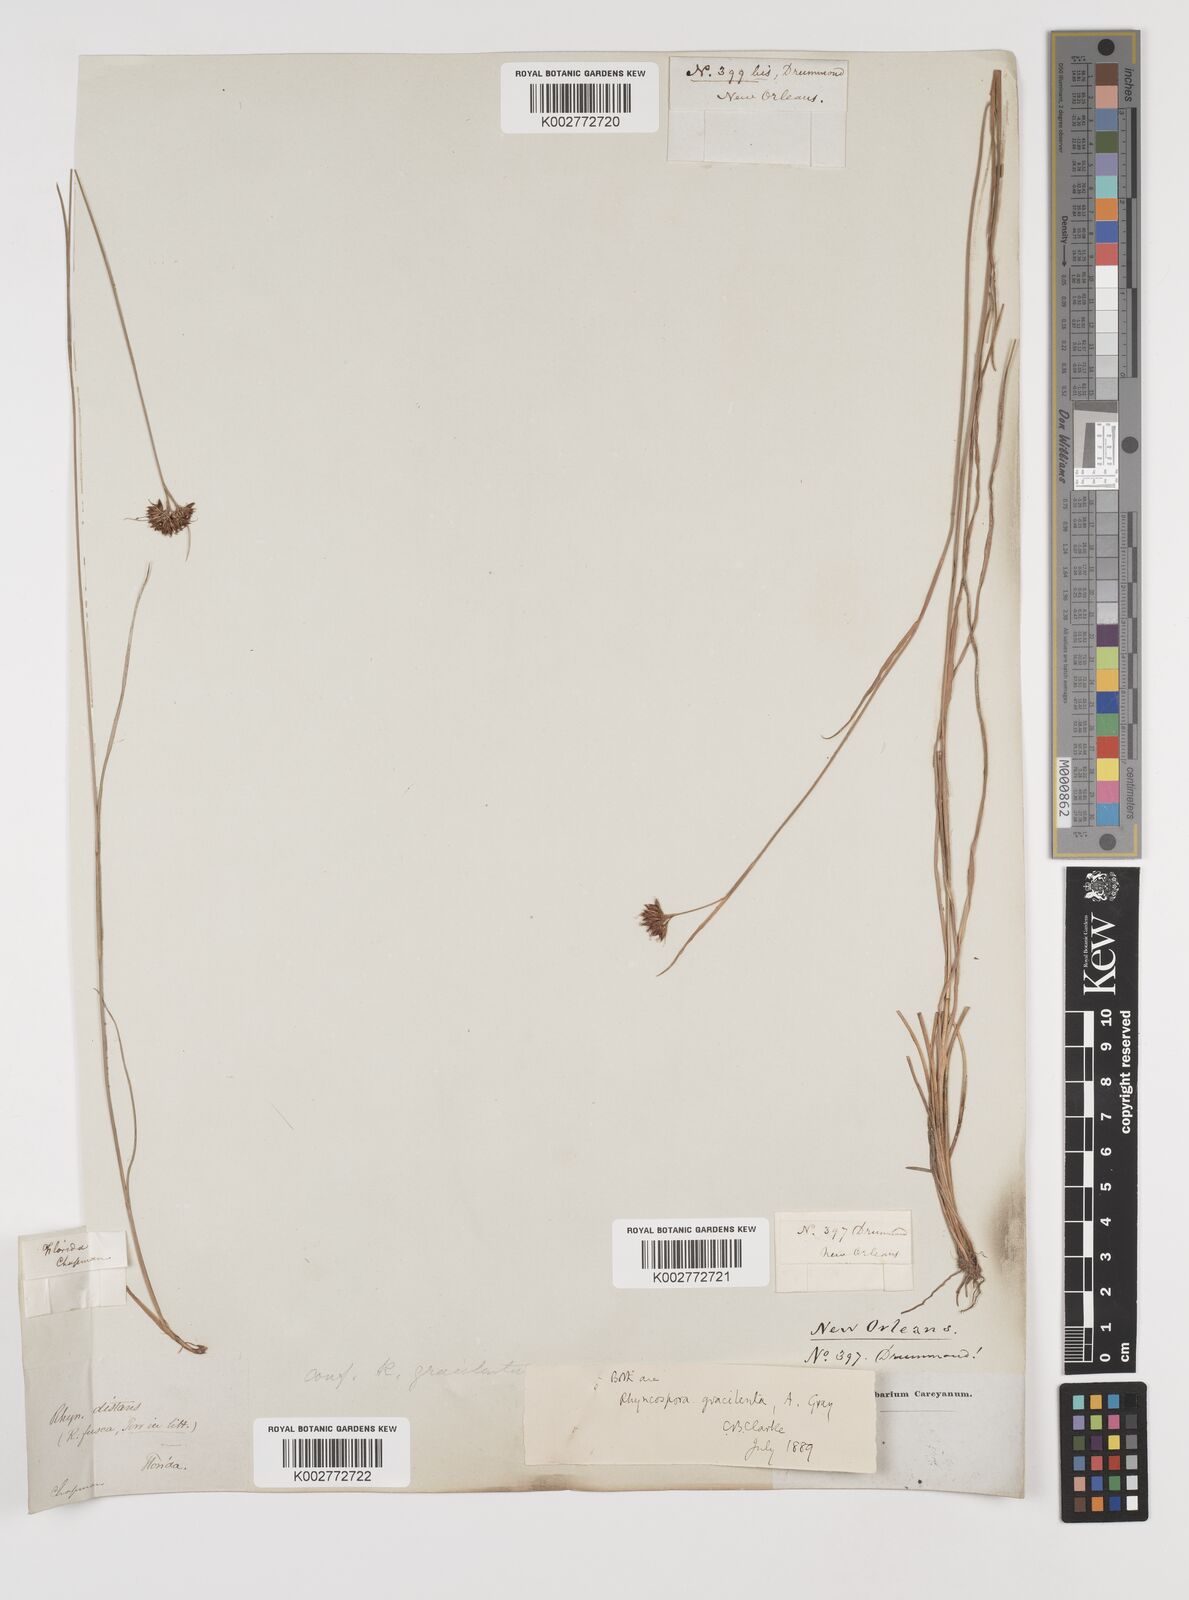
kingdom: Plantae
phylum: Tracheophyta
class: Liliopsida
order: Poales
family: Cyperaceae
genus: Rhynchospora
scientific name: Rhynchospora gracilenta
